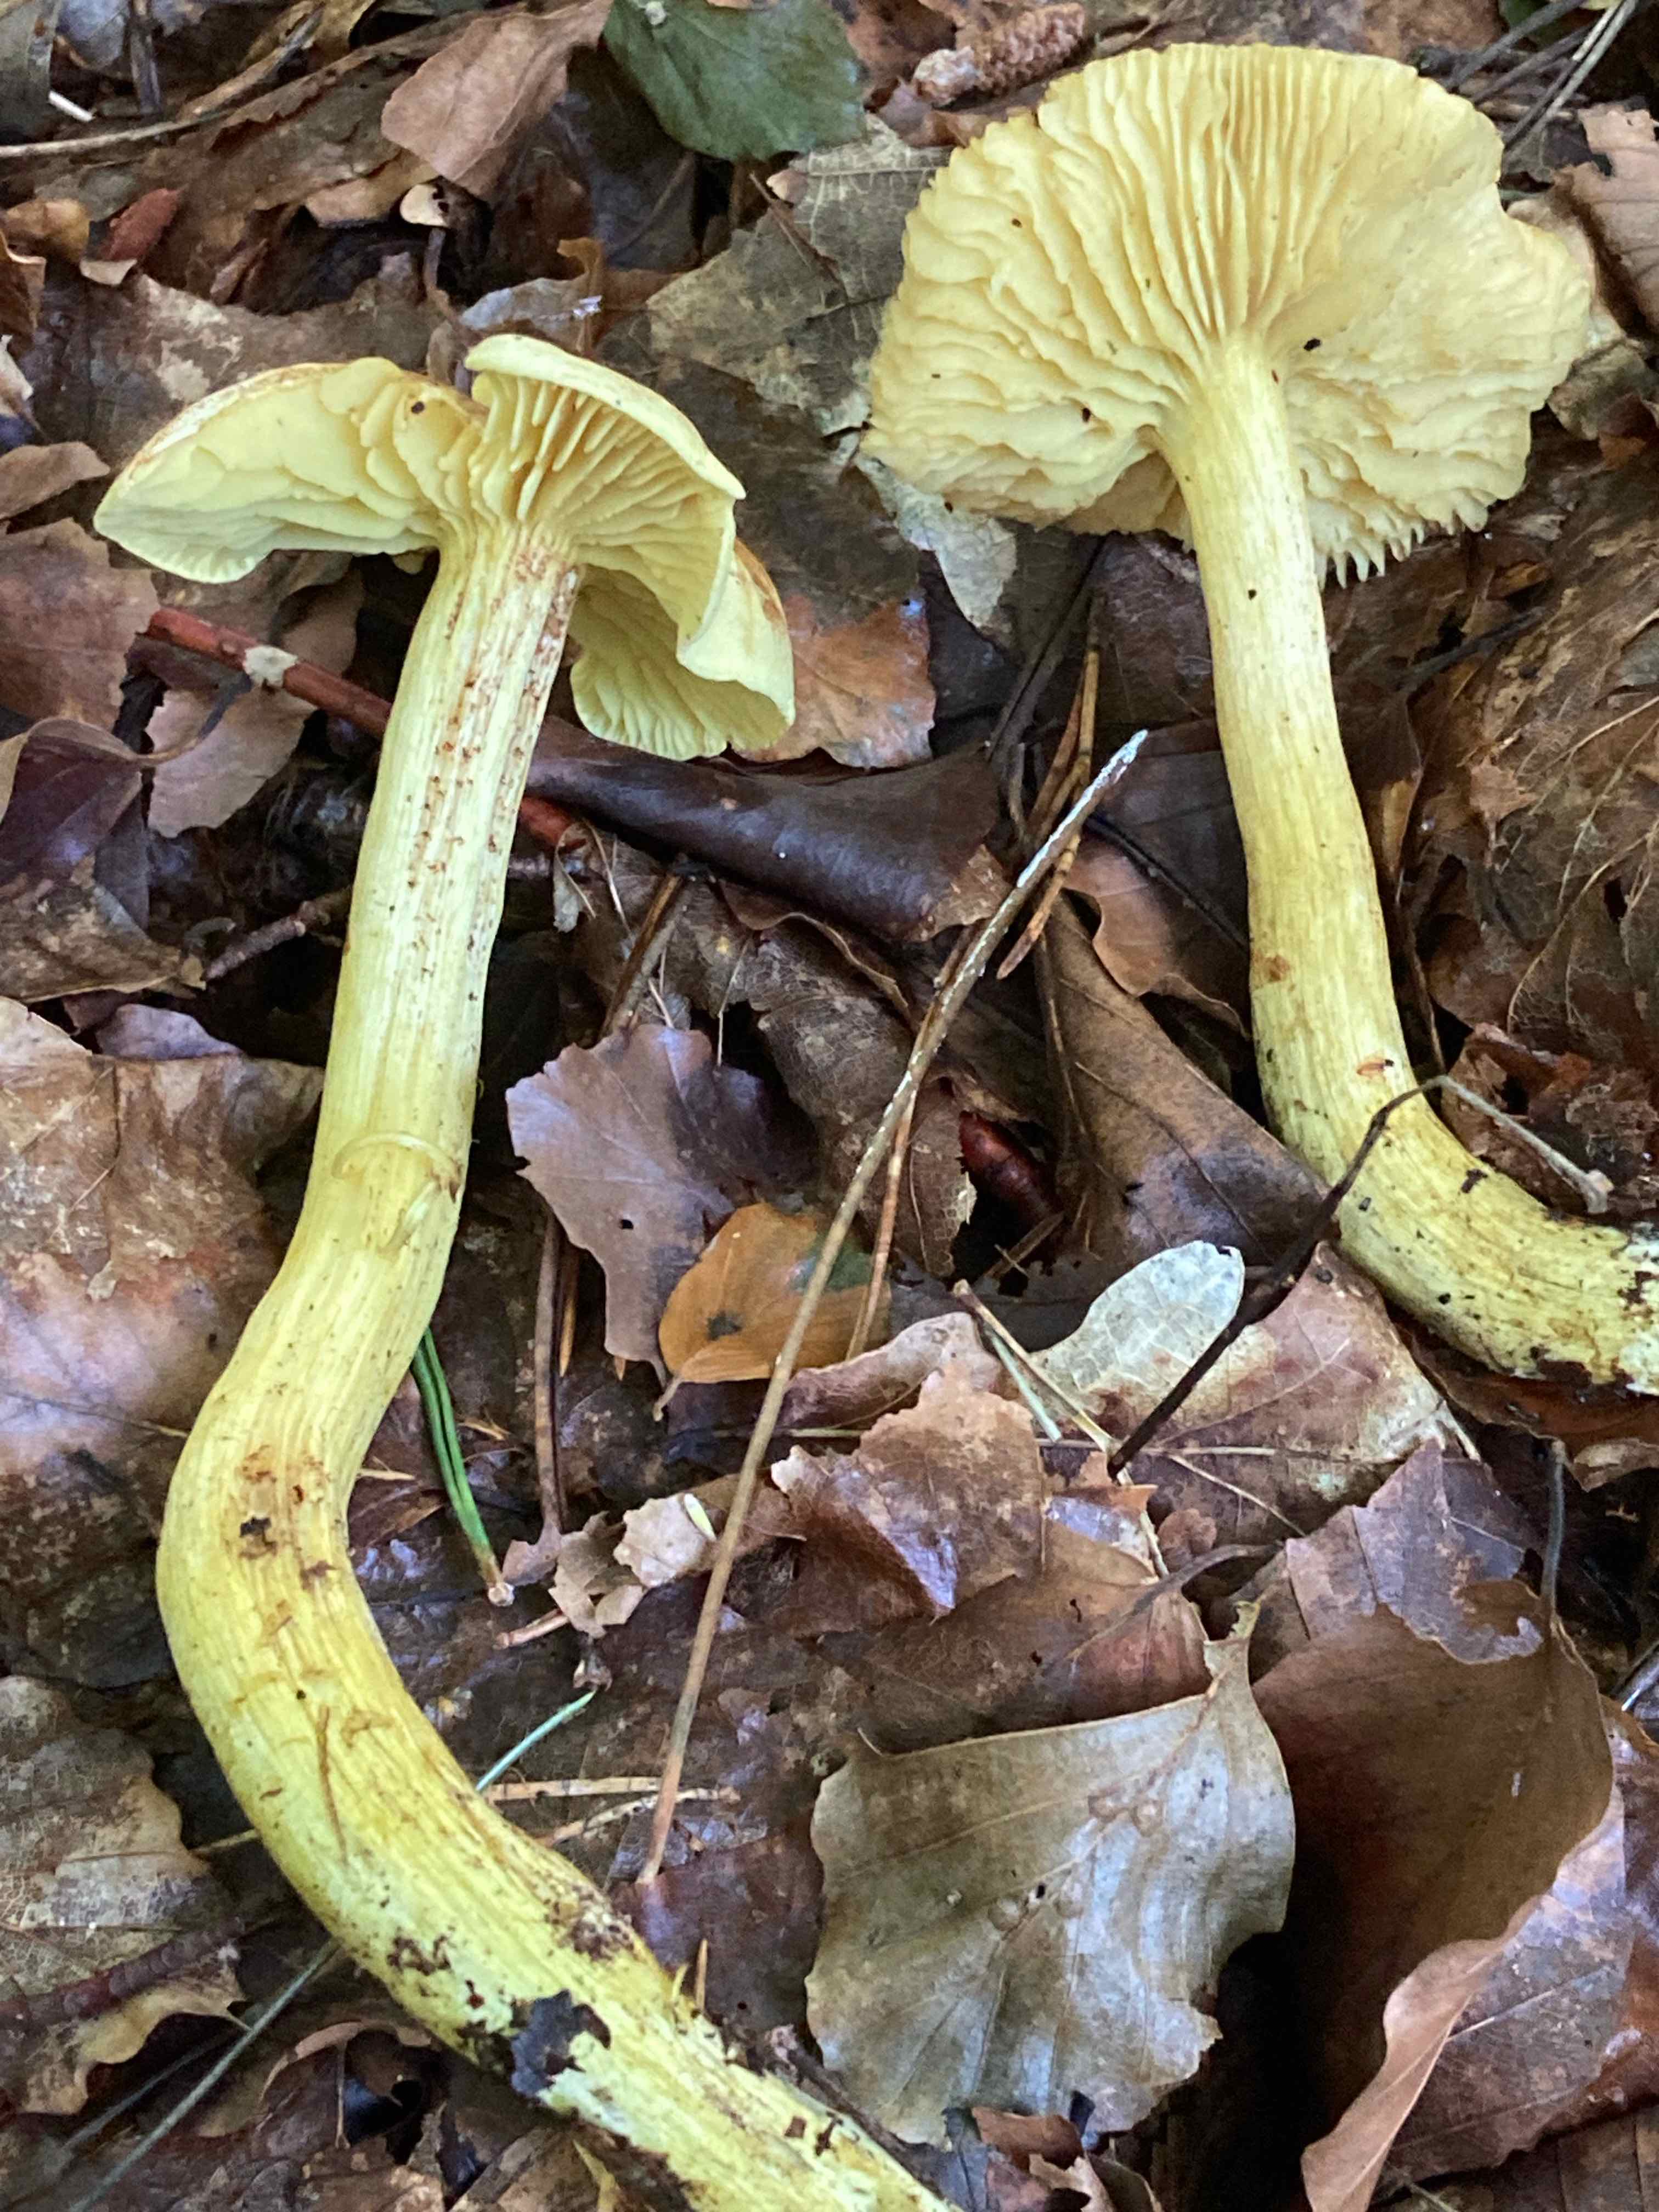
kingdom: Fungi
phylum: Basidiomycota
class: Agaricomycetes
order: Agaricales
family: Tricholomataceae
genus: Tricholoma
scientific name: Tricholoma sulphureum
